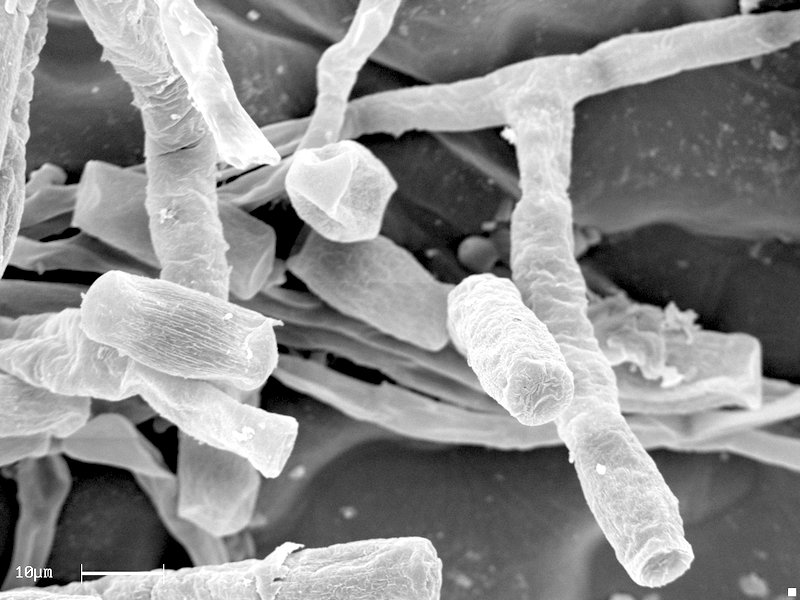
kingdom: Fungi
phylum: Ascomycota
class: Leotiomycetes
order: Helotiales
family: Erysiphaceae
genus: Neoerysiphe
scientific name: Neoerysiphe galeopsidis
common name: Mint mildew
